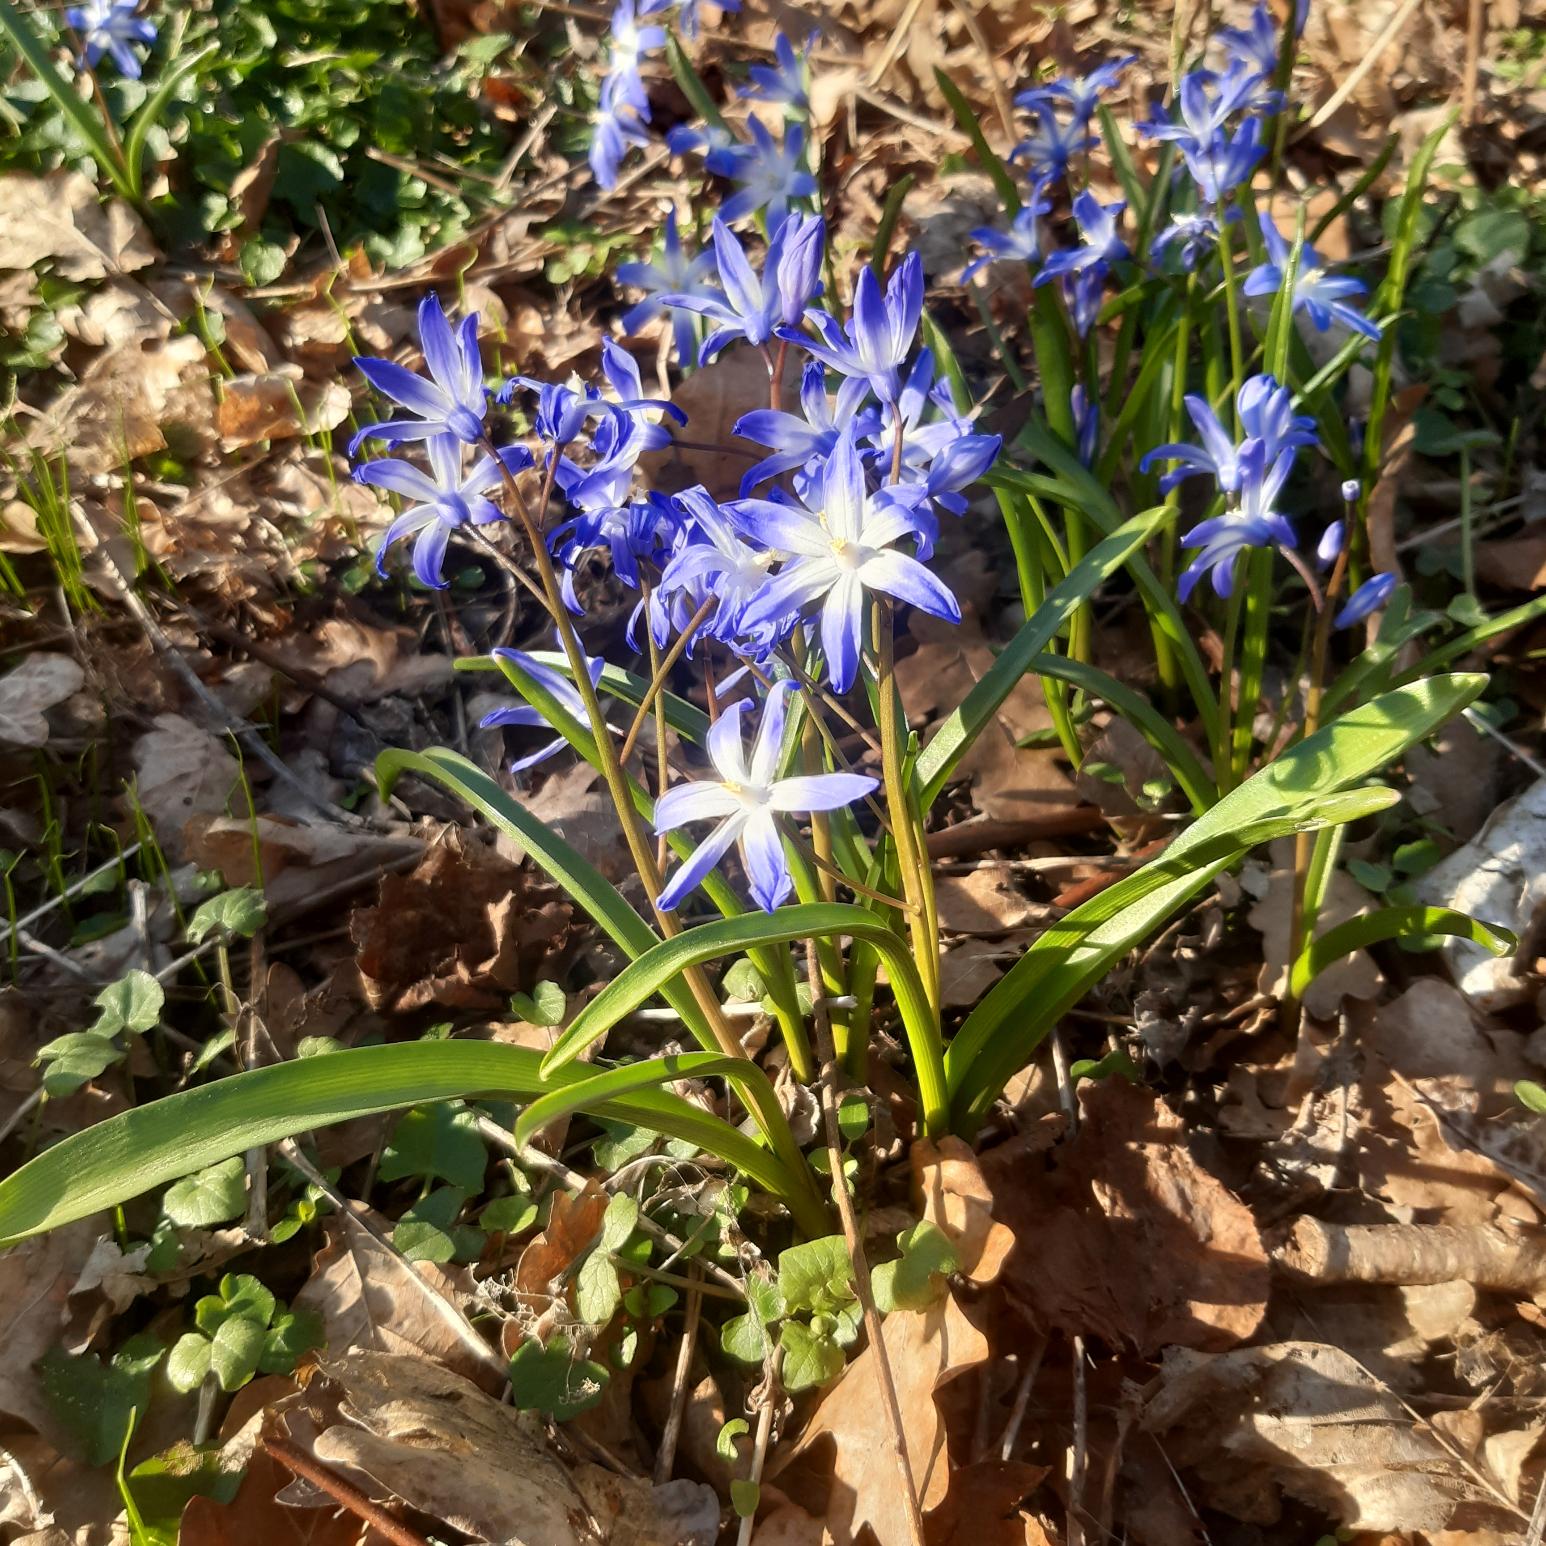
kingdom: Plantae
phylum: Tracheophyta
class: Liliopsida
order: Asparagales
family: Asparagaceae
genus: Scilla
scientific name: Scilla forbesii
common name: Almindelig snepryd
